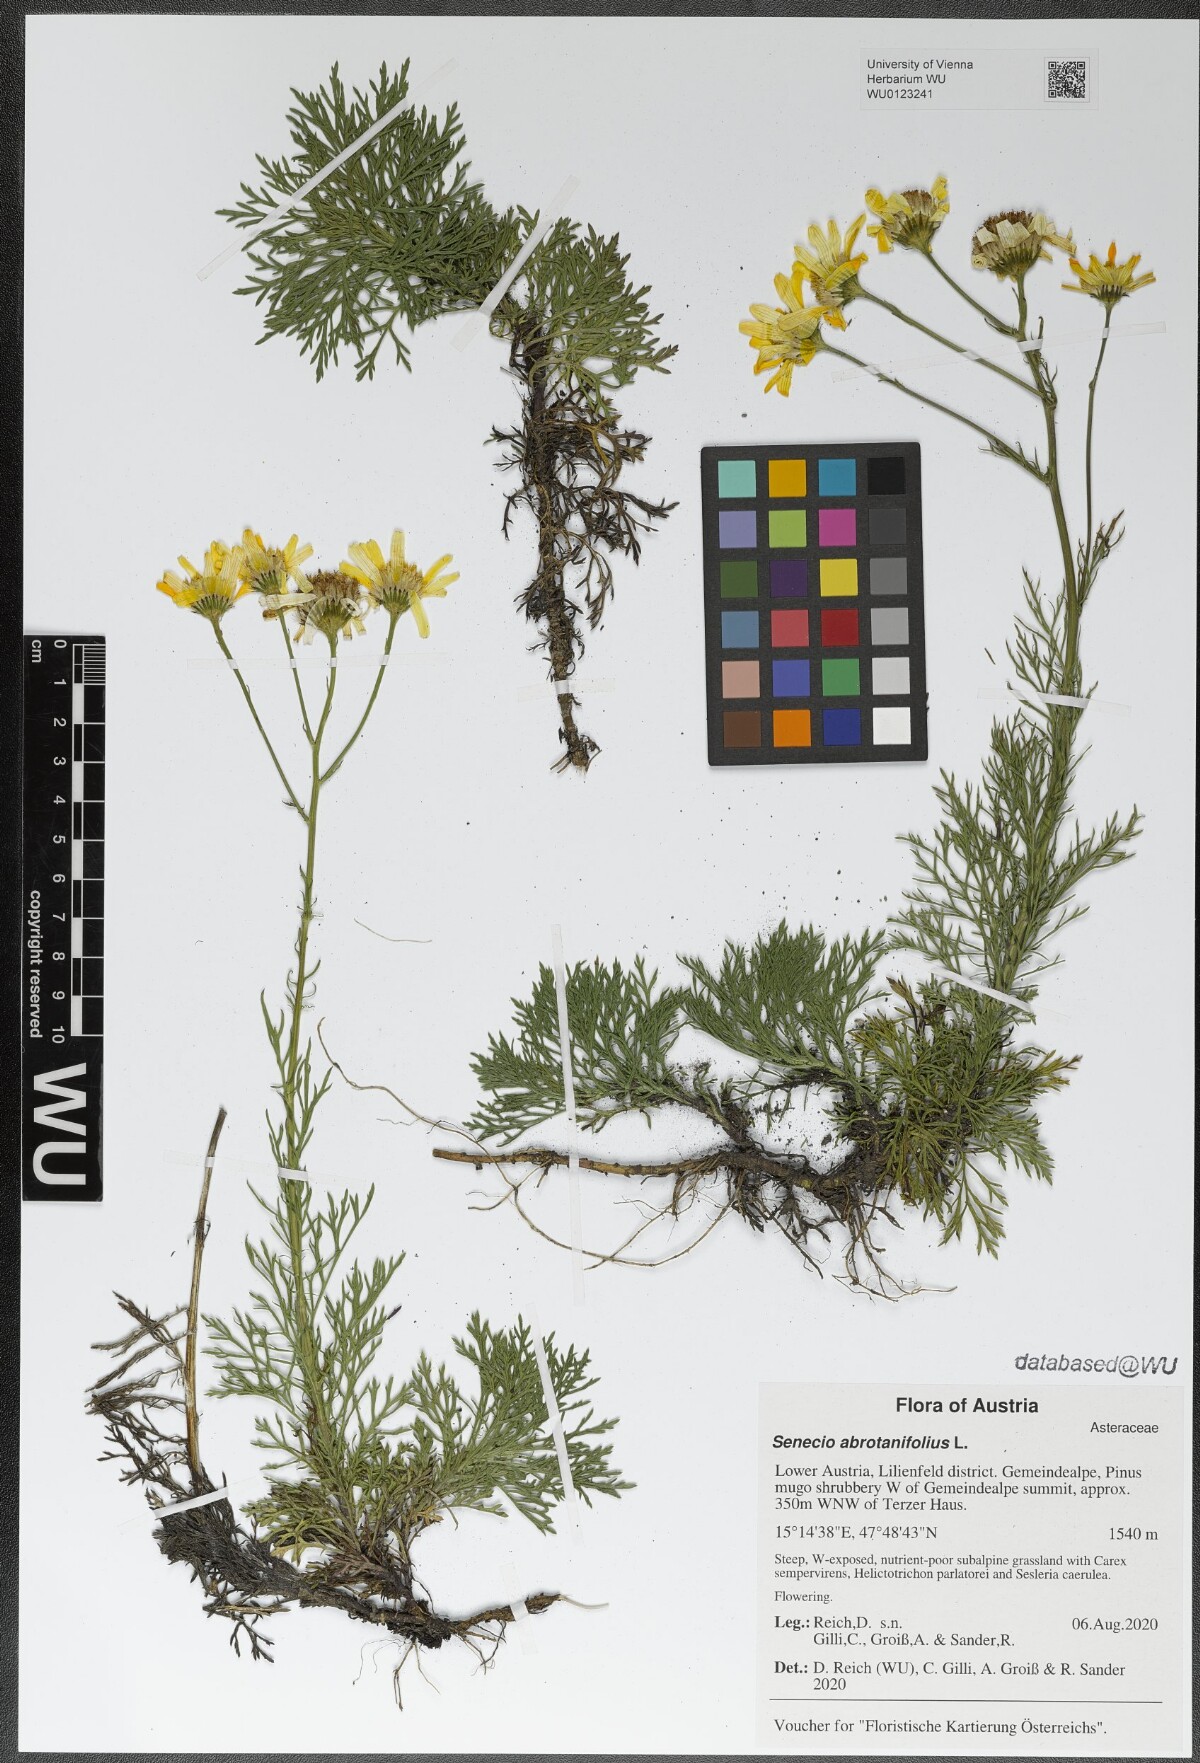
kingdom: Plantae
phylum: Tracheophyta
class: Magnoliopsida
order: Asterales
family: Asteraceae
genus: Jacobaea
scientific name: Jacobaea abrotanifolia
